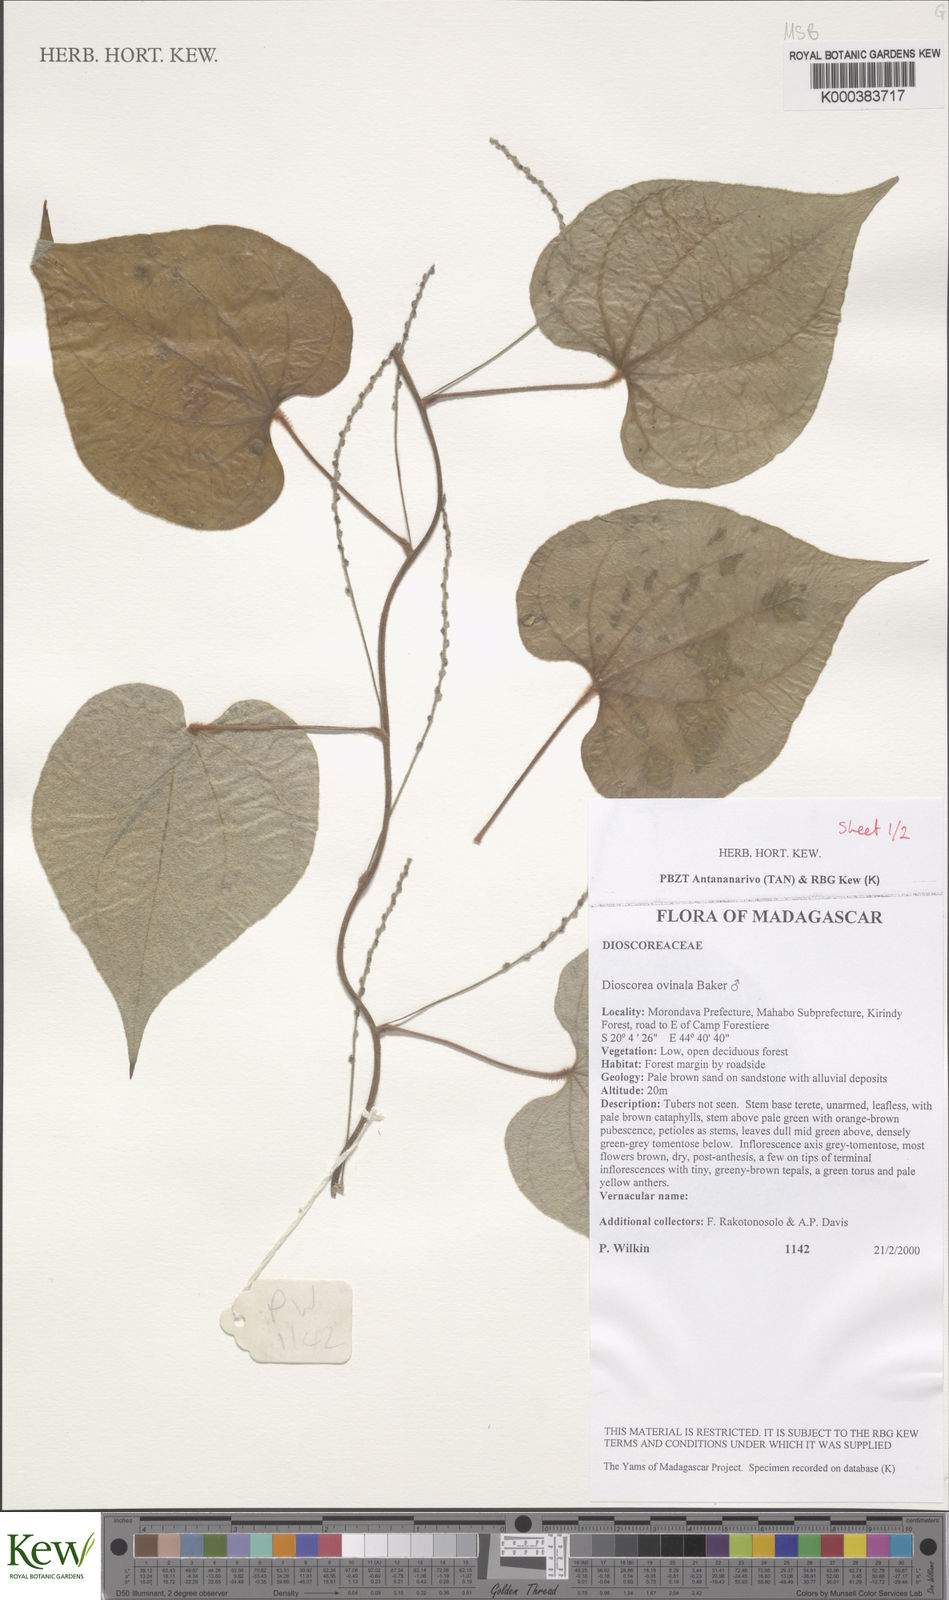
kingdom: Plantae
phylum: Tracheophyta
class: Liliopsida
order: Dioscoreales
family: Dioscoreaceae
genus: Dioscorea
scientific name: Dioscorea ovinala
